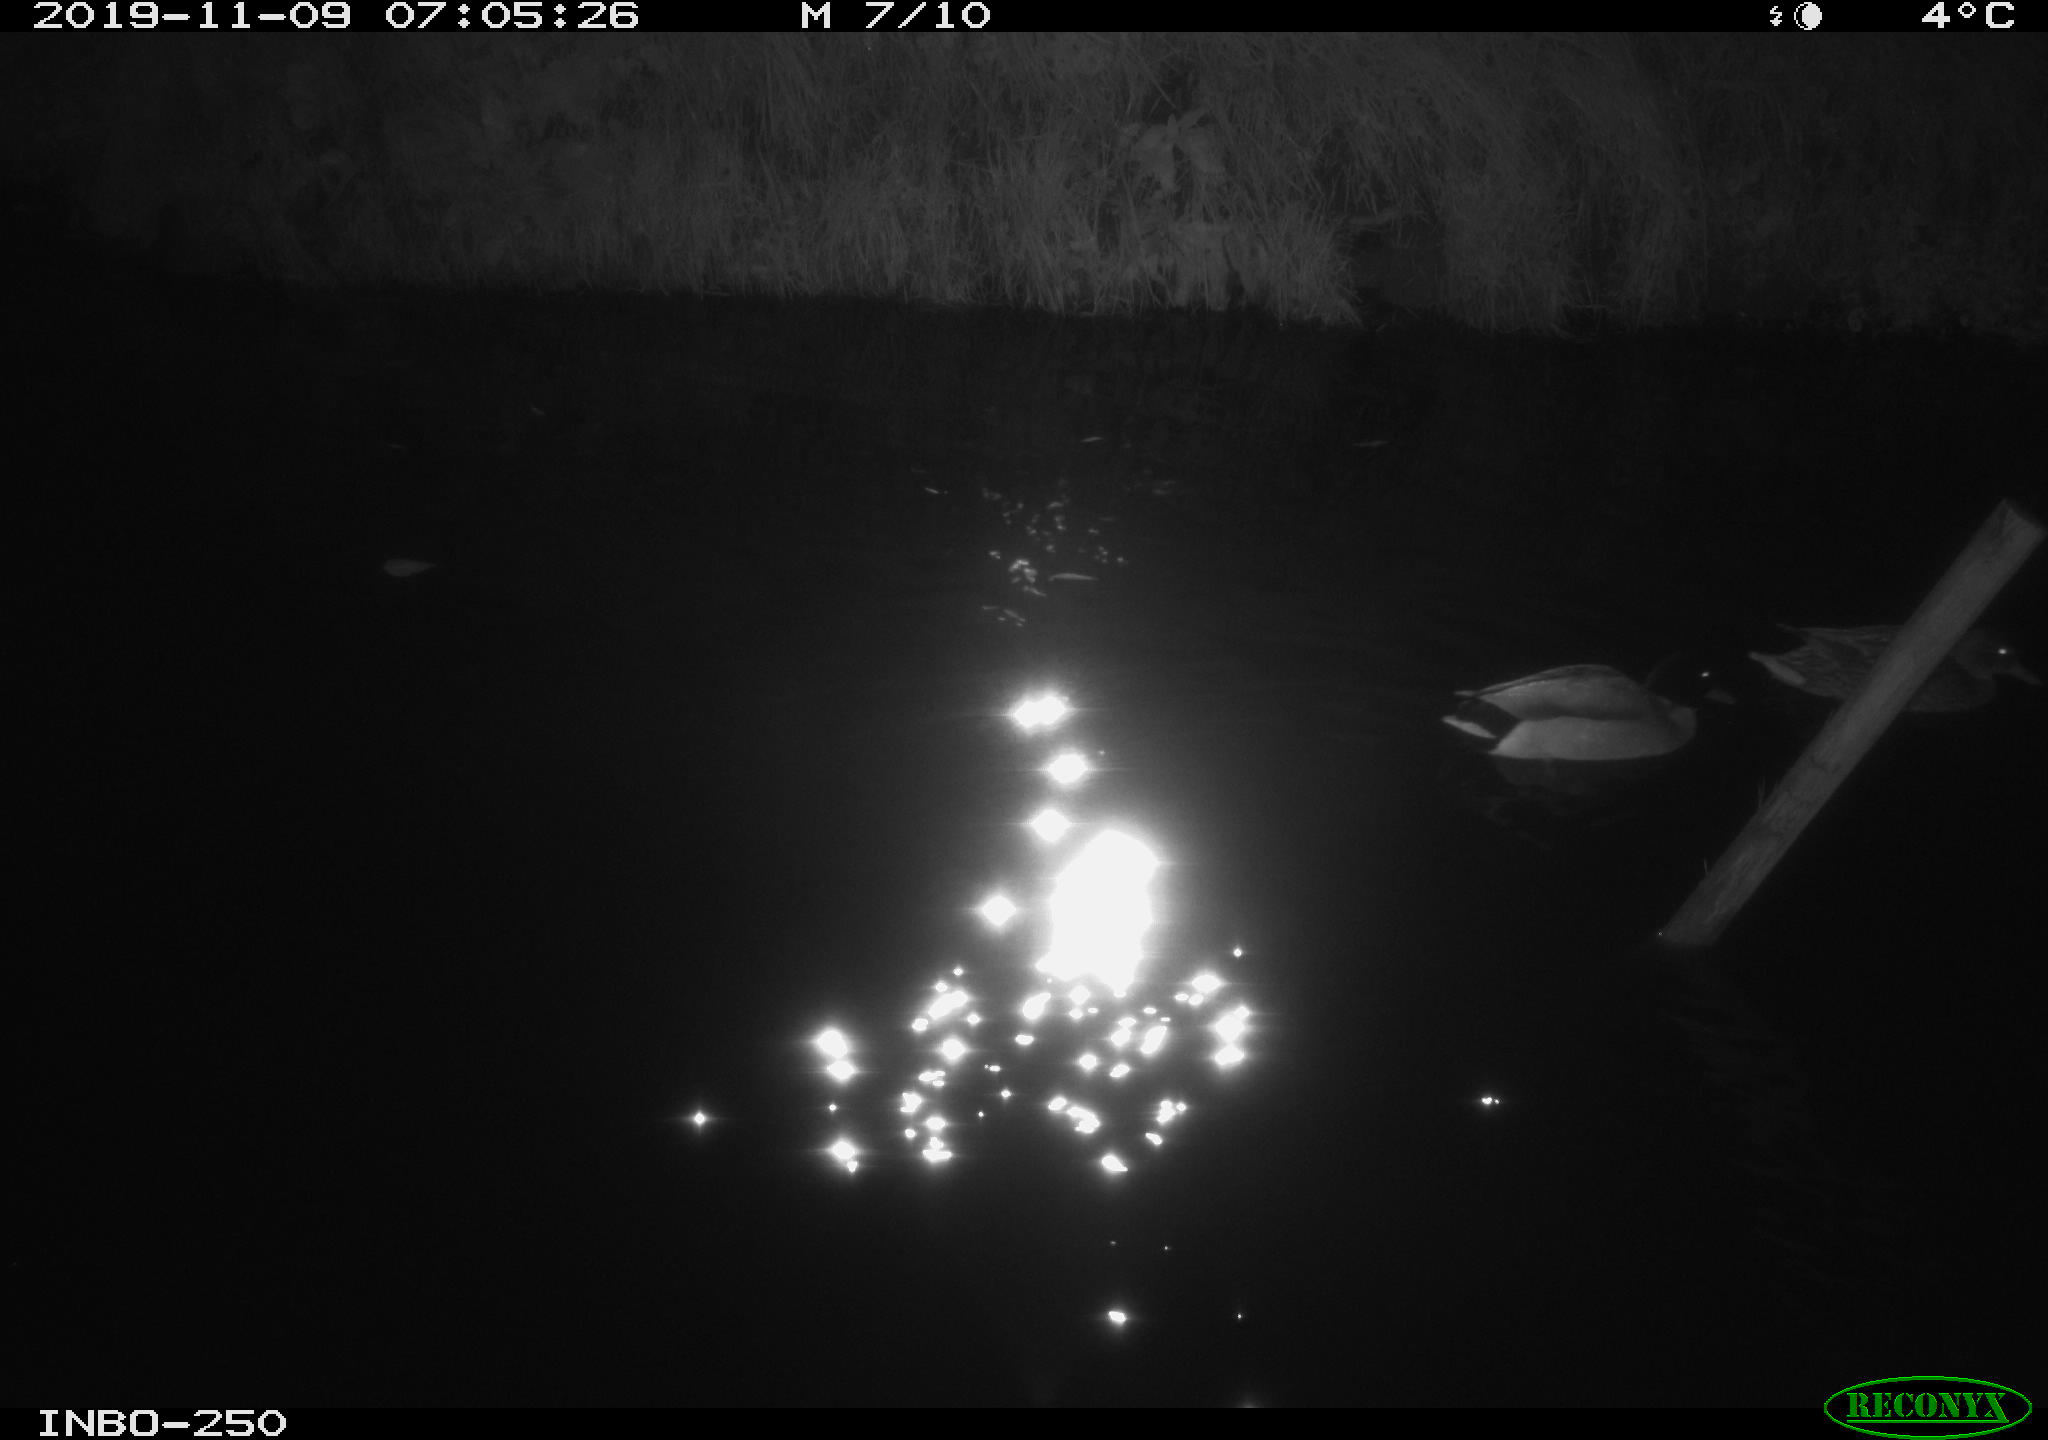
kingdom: Animalia
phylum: Chordata
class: Aves
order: Anseriformes
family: Anatidae
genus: Anas
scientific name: Anas platyrhynchos
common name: Mallard
